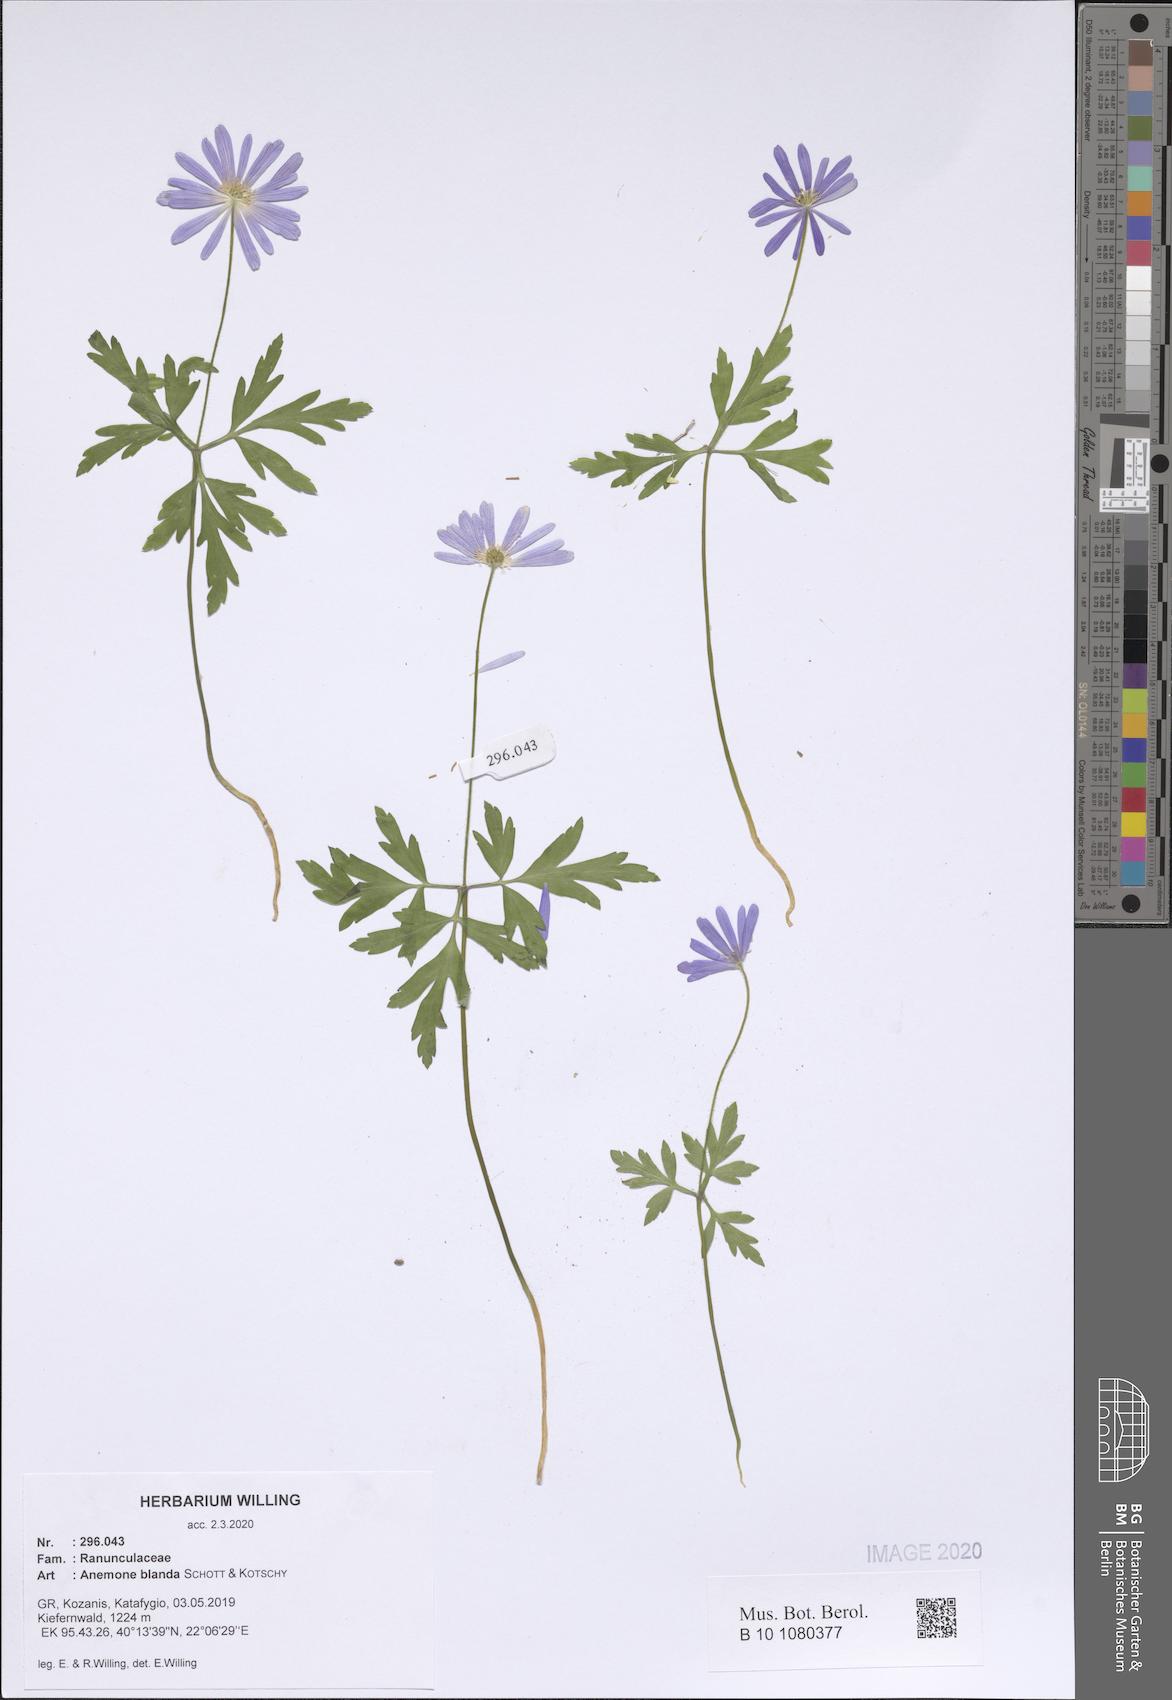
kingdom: Plantae
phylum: Tracheophyta
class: Magnoliopsida
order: Ranunculales
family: Ranunculaceae
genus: Anemone
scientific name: Anemone blanda
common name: Balkan anemone
